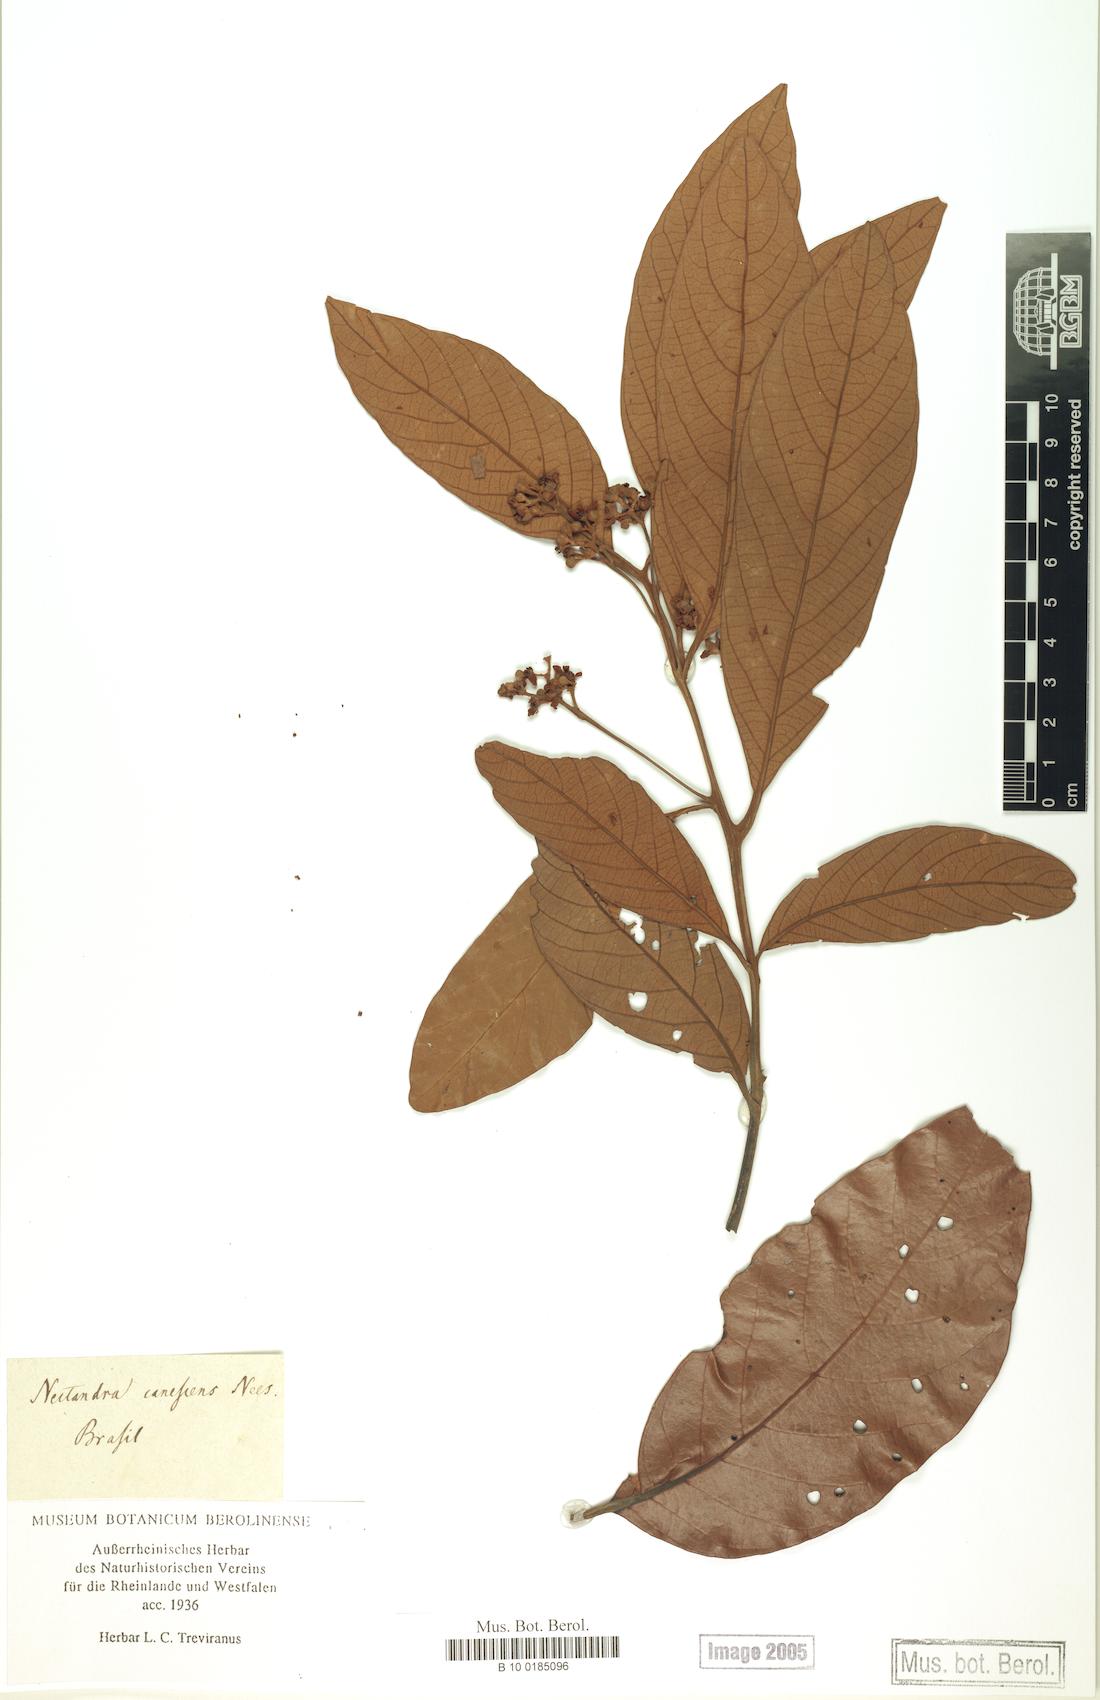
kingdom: Plantae
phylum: Tracheophyta
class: Magnoliopsida
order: Laurales
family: Lauraceae
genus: Nectandra
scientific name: Nectandra canescens
